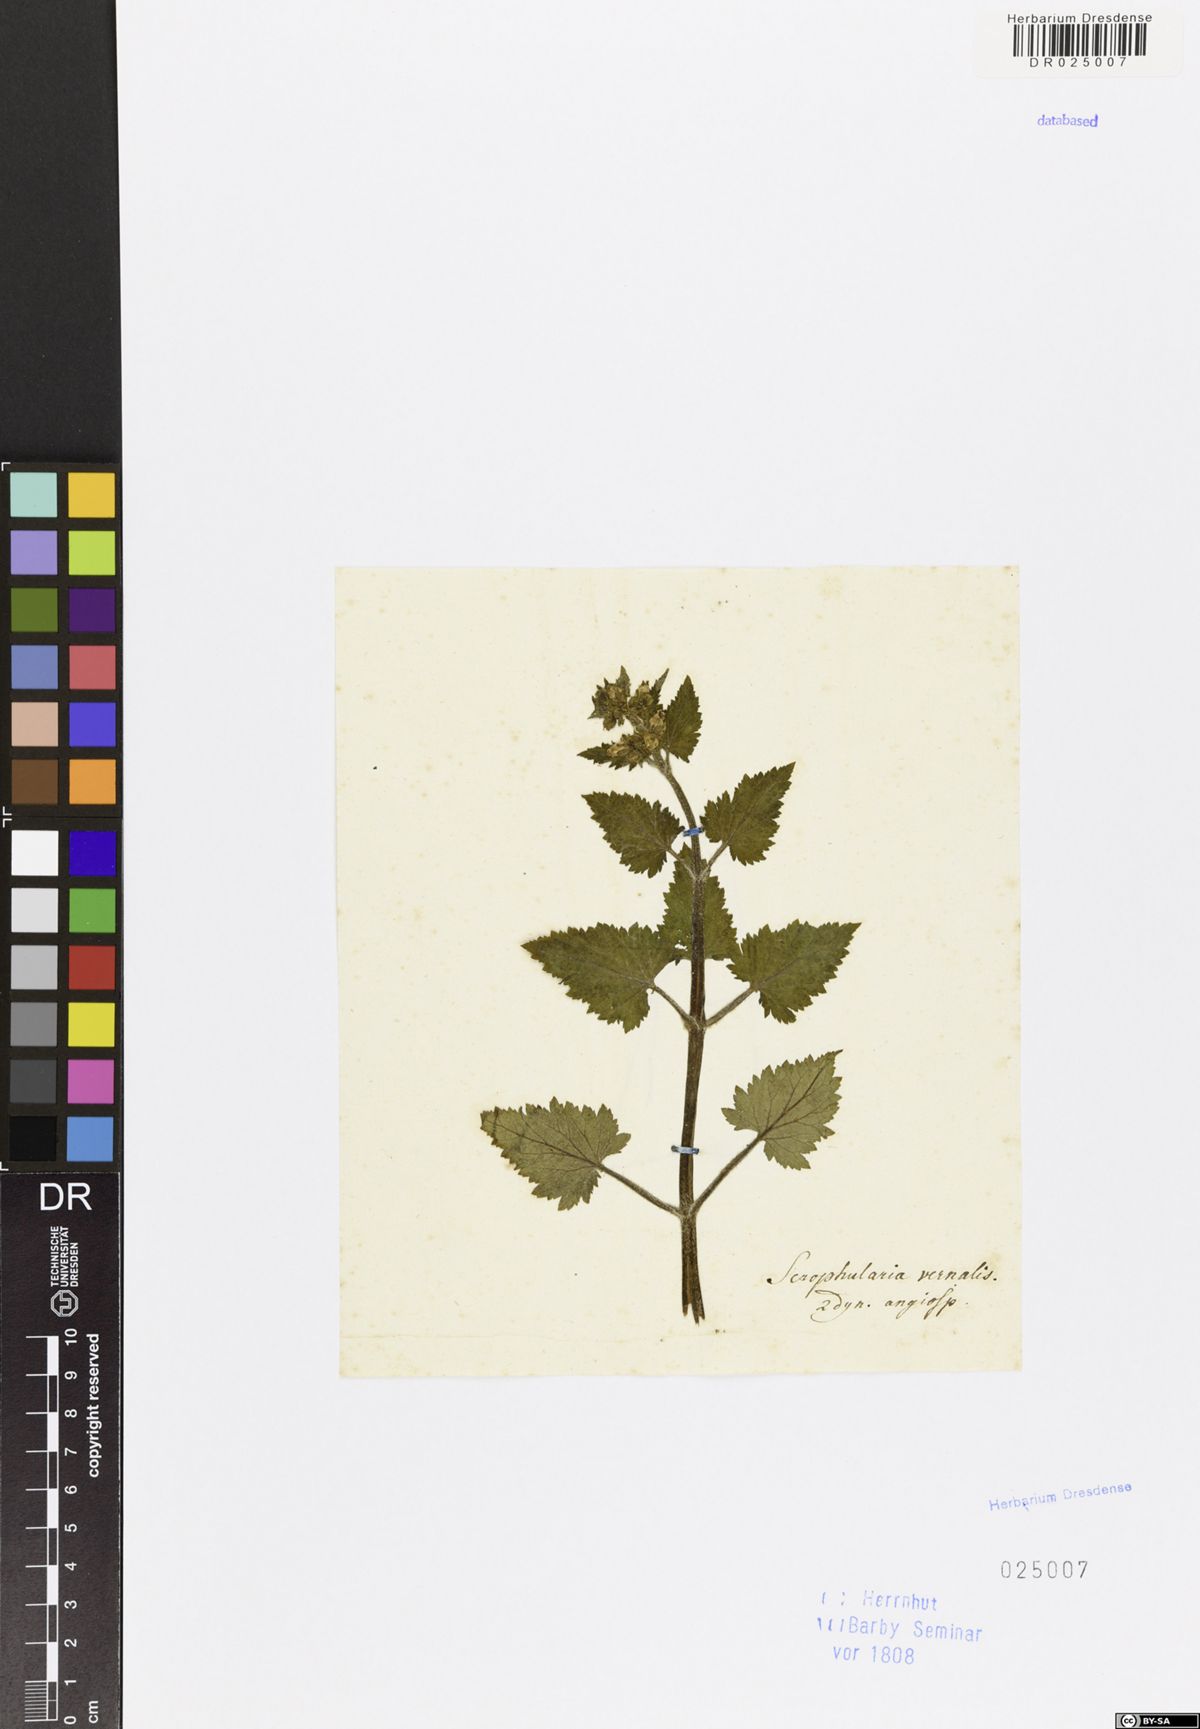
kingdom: Plantae
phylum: Tracheophyta
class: Magnoliopsida
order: Lamiales
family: Scrophulariaceae
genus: Scrophularia
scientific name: Scrophularia vernalis
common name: Yellow figwort
